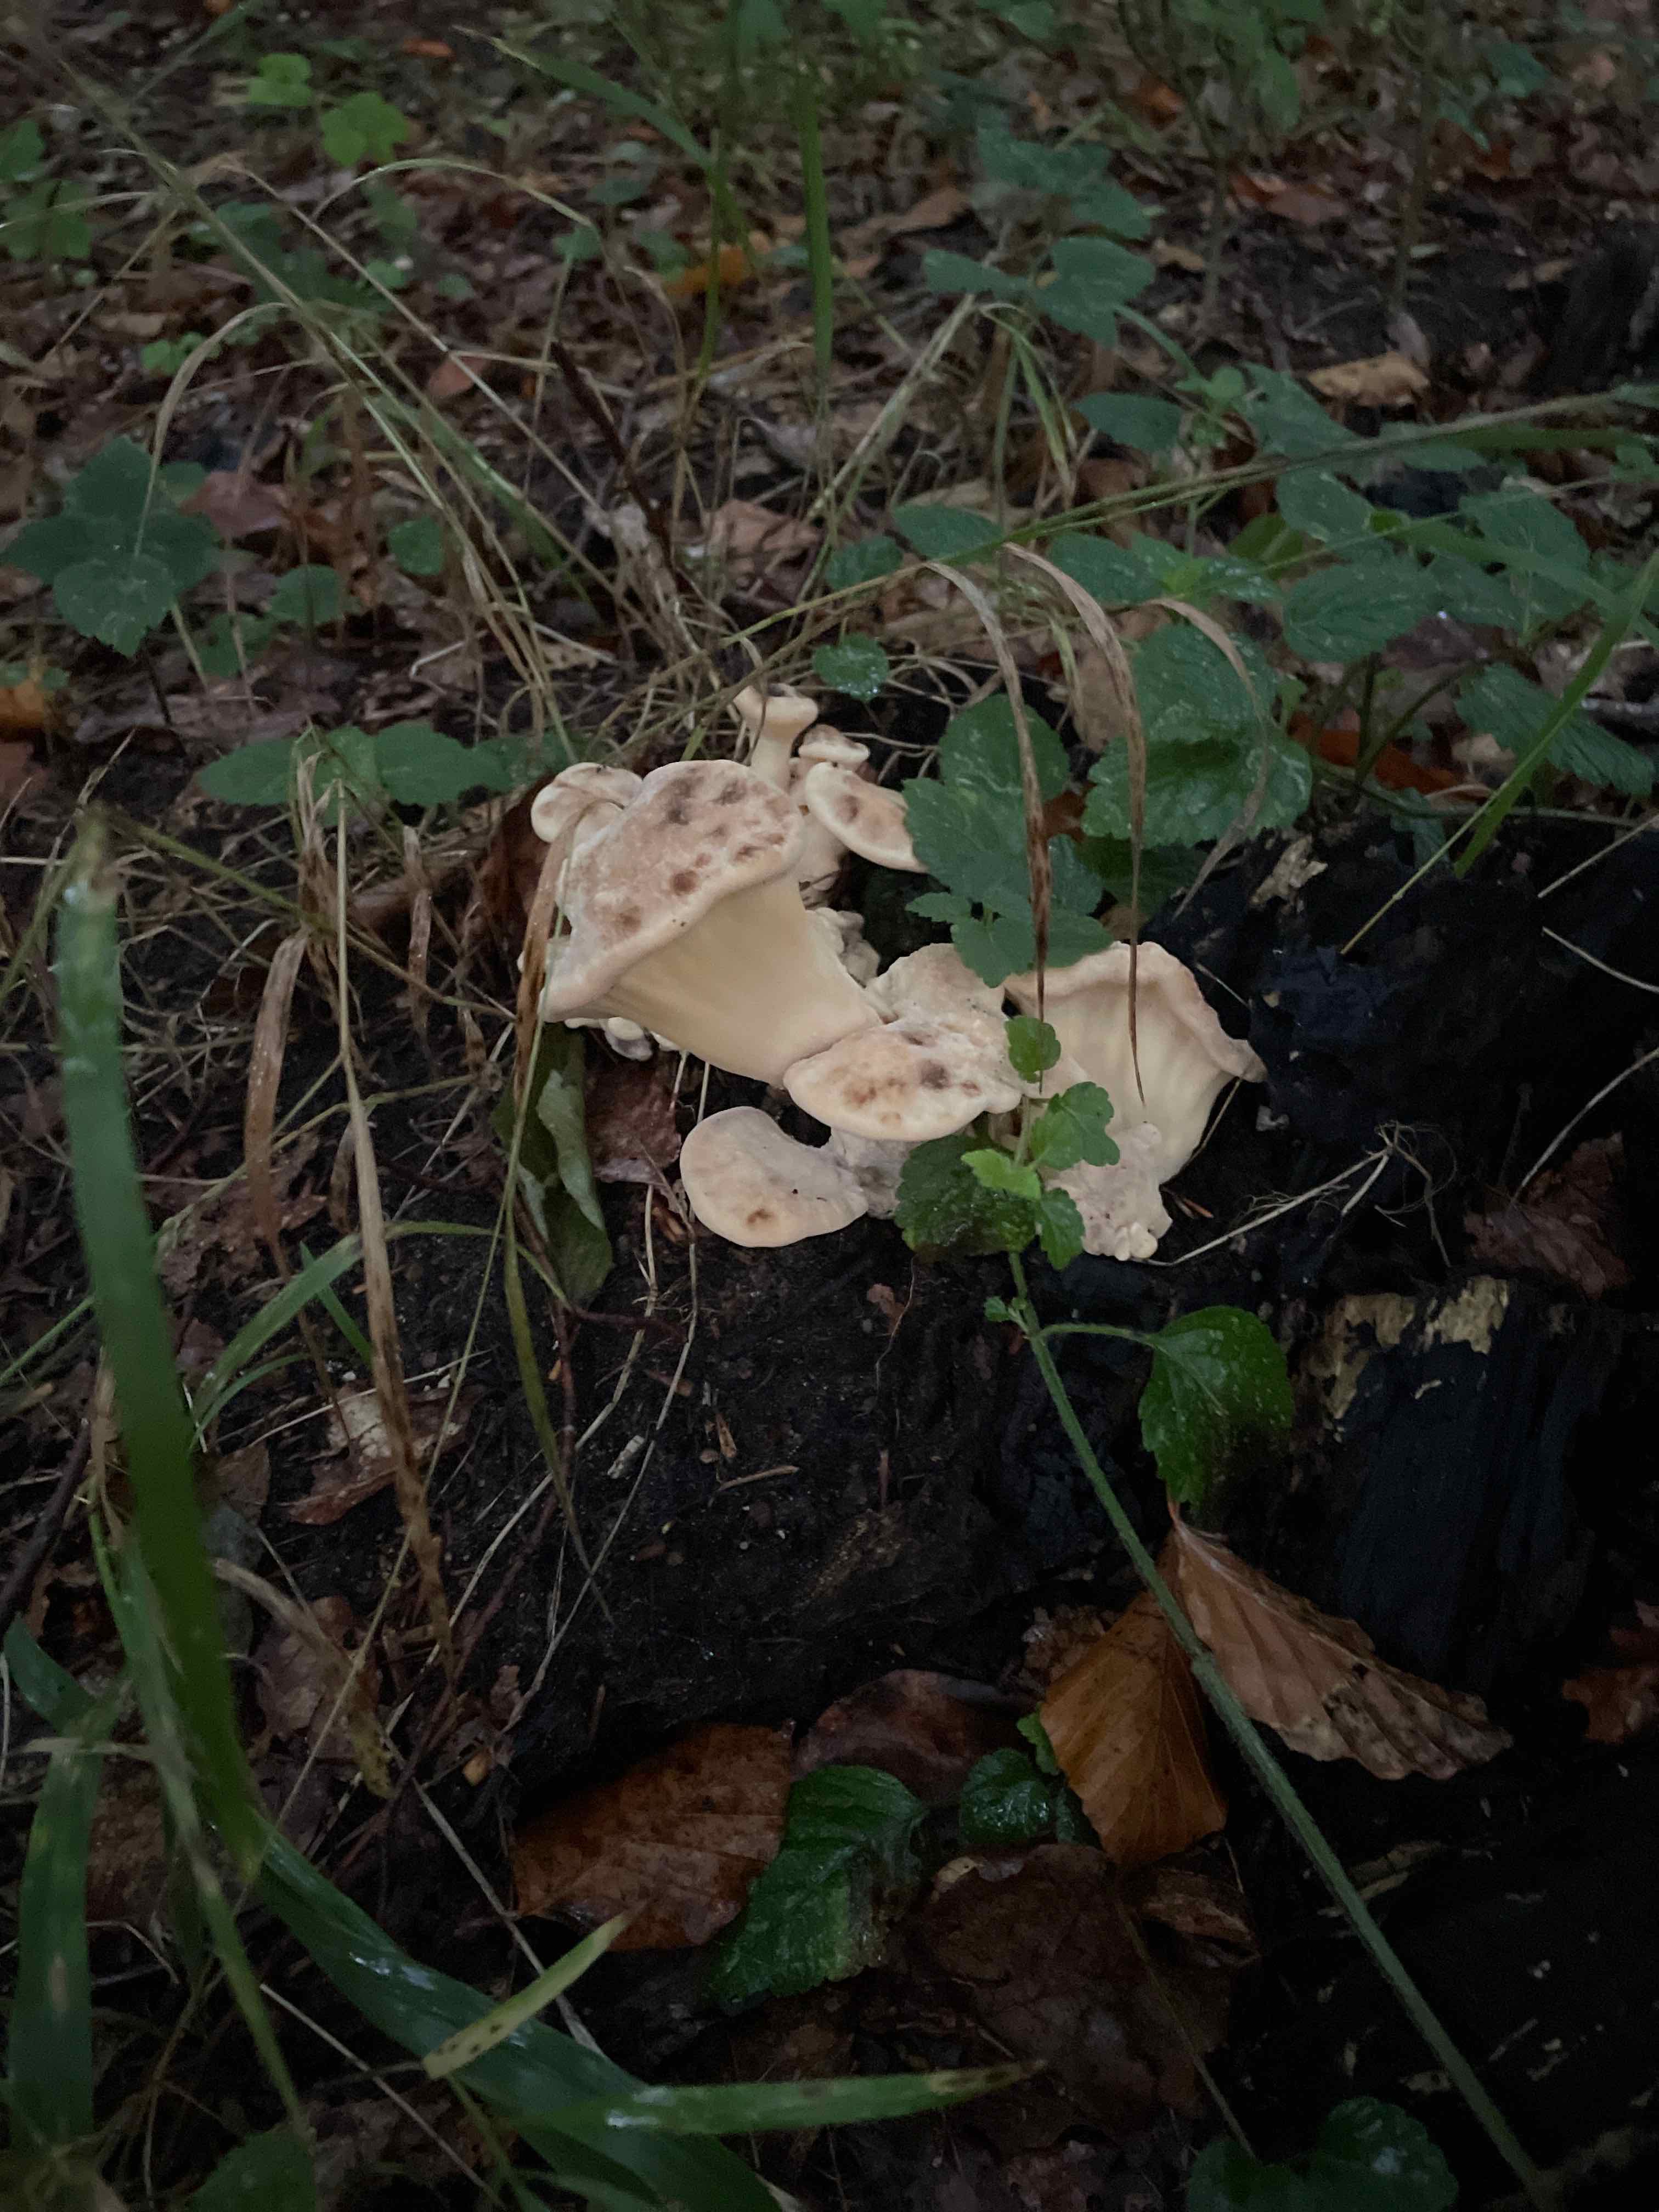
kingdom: Fungi
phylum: Basidiomycota
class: Agaricomycetes
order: Polyporales
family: Meripilaceae
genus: Meripilus
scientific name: Meripilus giganteus
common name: kæmpeporesvamp
